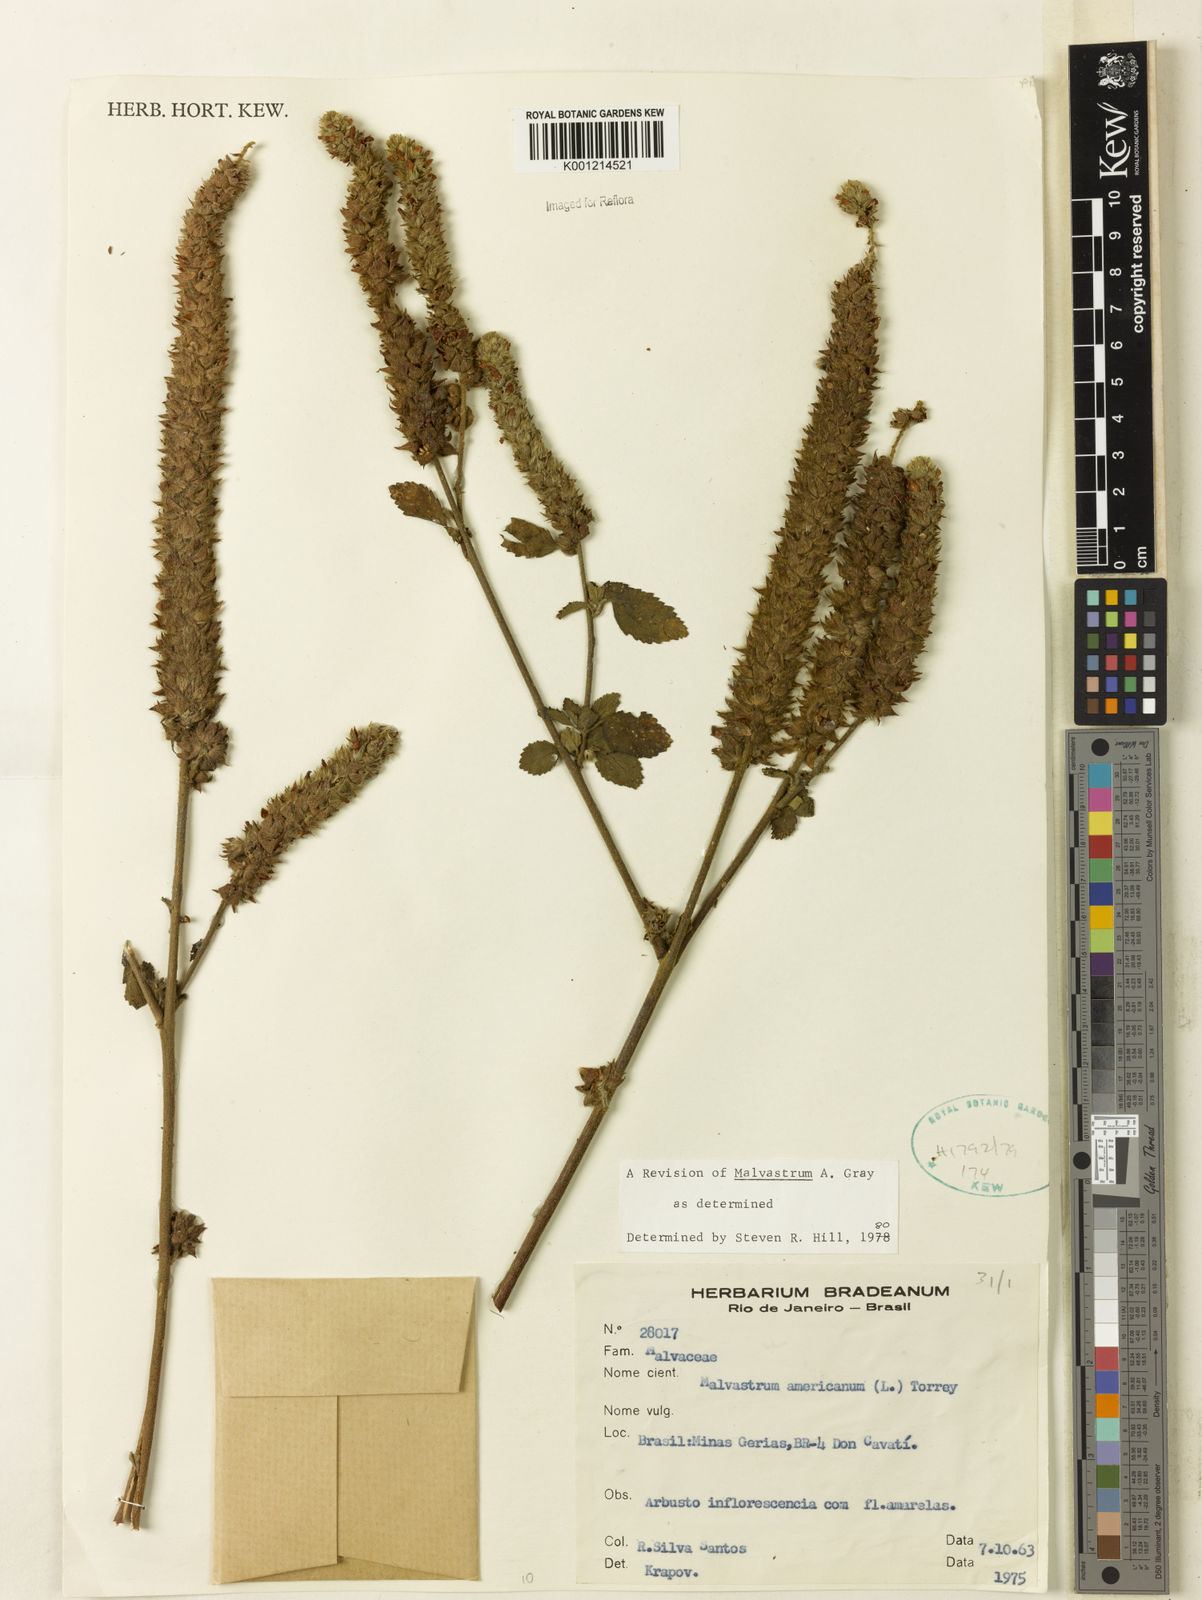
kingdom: Plantae
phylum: Tracheophyta
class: Magnoliopsida
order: Malvales
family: Malvaceae
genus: Malvastrum
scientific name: Malvastrum americanum
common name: Spiked malvastrum
